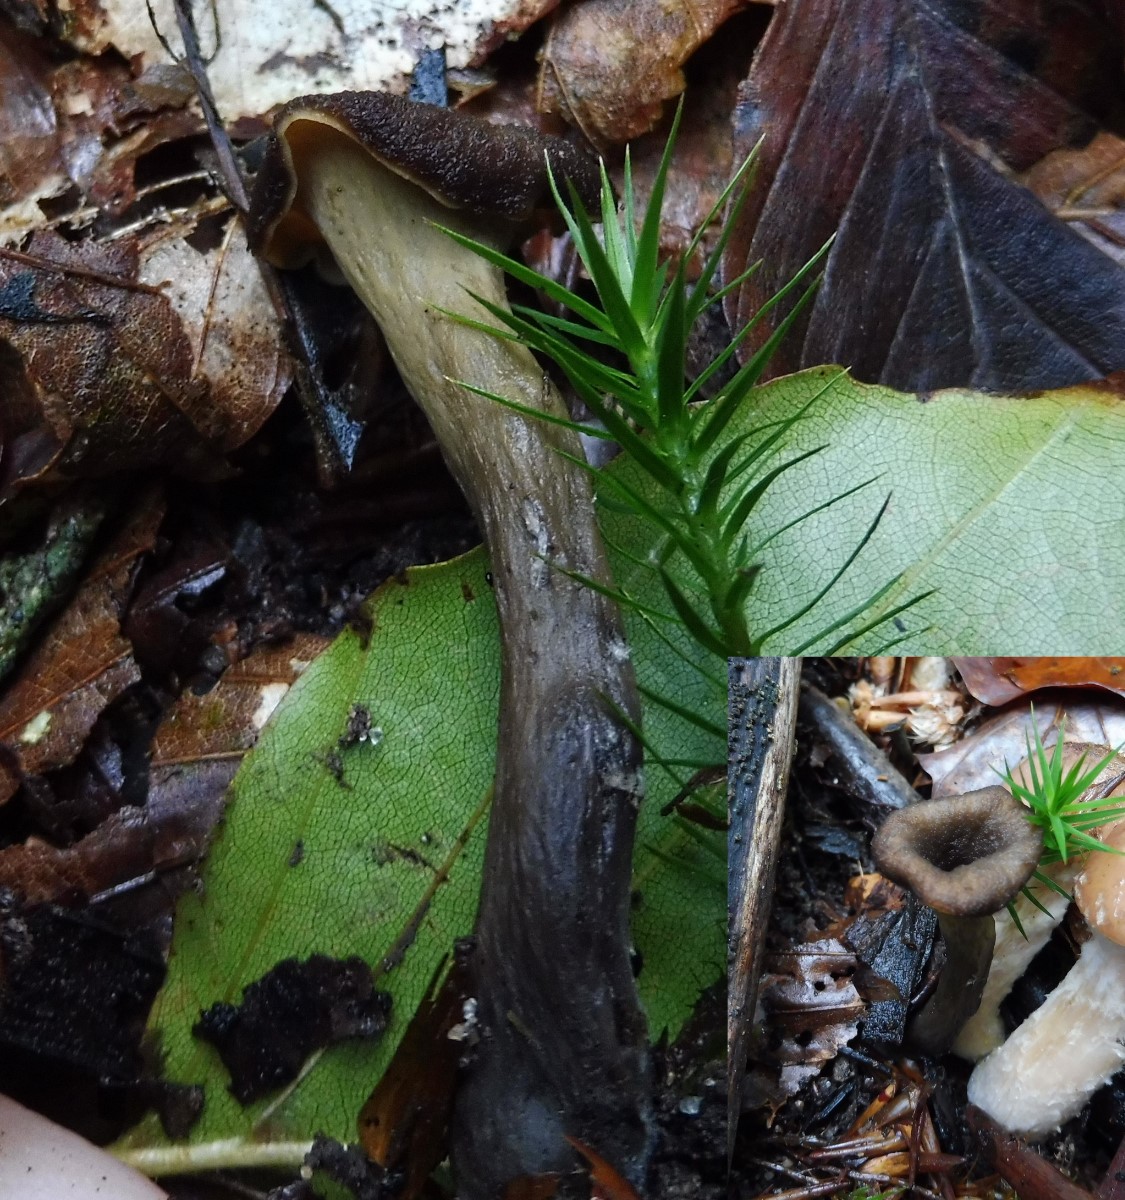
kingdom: Fungi
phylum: Basidiomycota
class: Agaricomycetes
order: Cantharellales
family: Hydnaceae
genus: Craterellus
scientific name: Craterellus cornucopioides
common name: trompetsvamp
